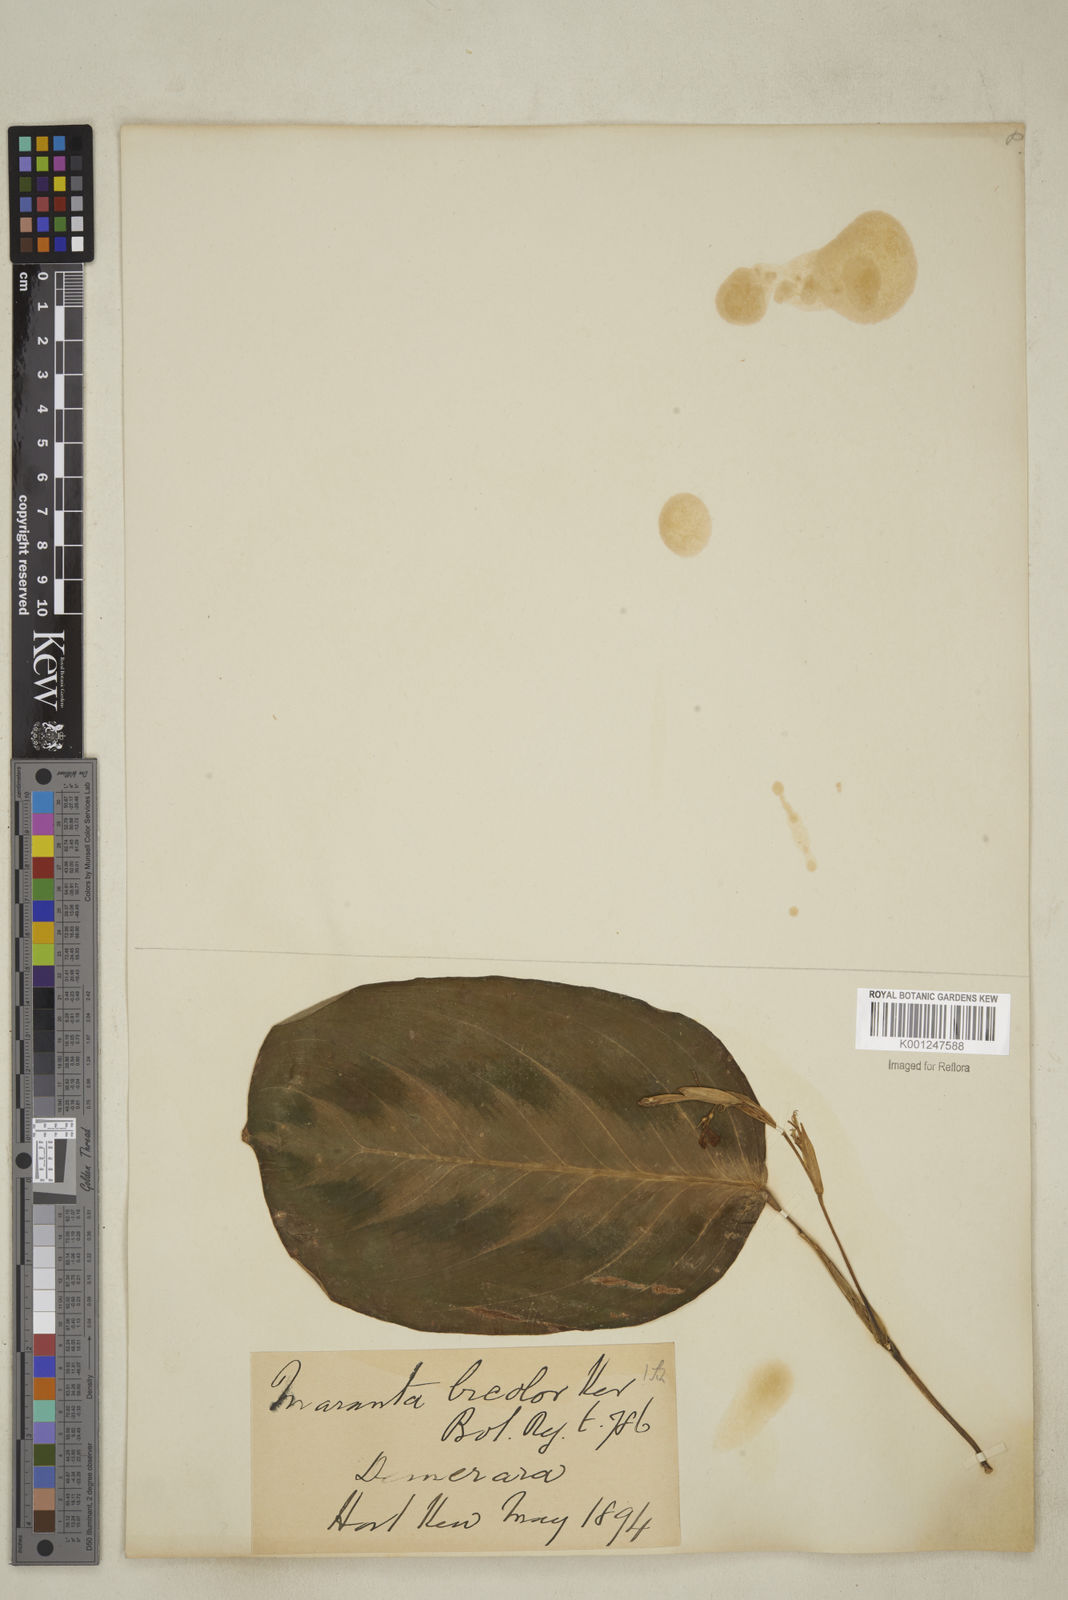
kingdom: Plantae
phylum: Tracheophyta
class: Liliopsida
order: Zingiberales
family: Marantaceae
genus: Maranta
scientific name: Maranta cristata
